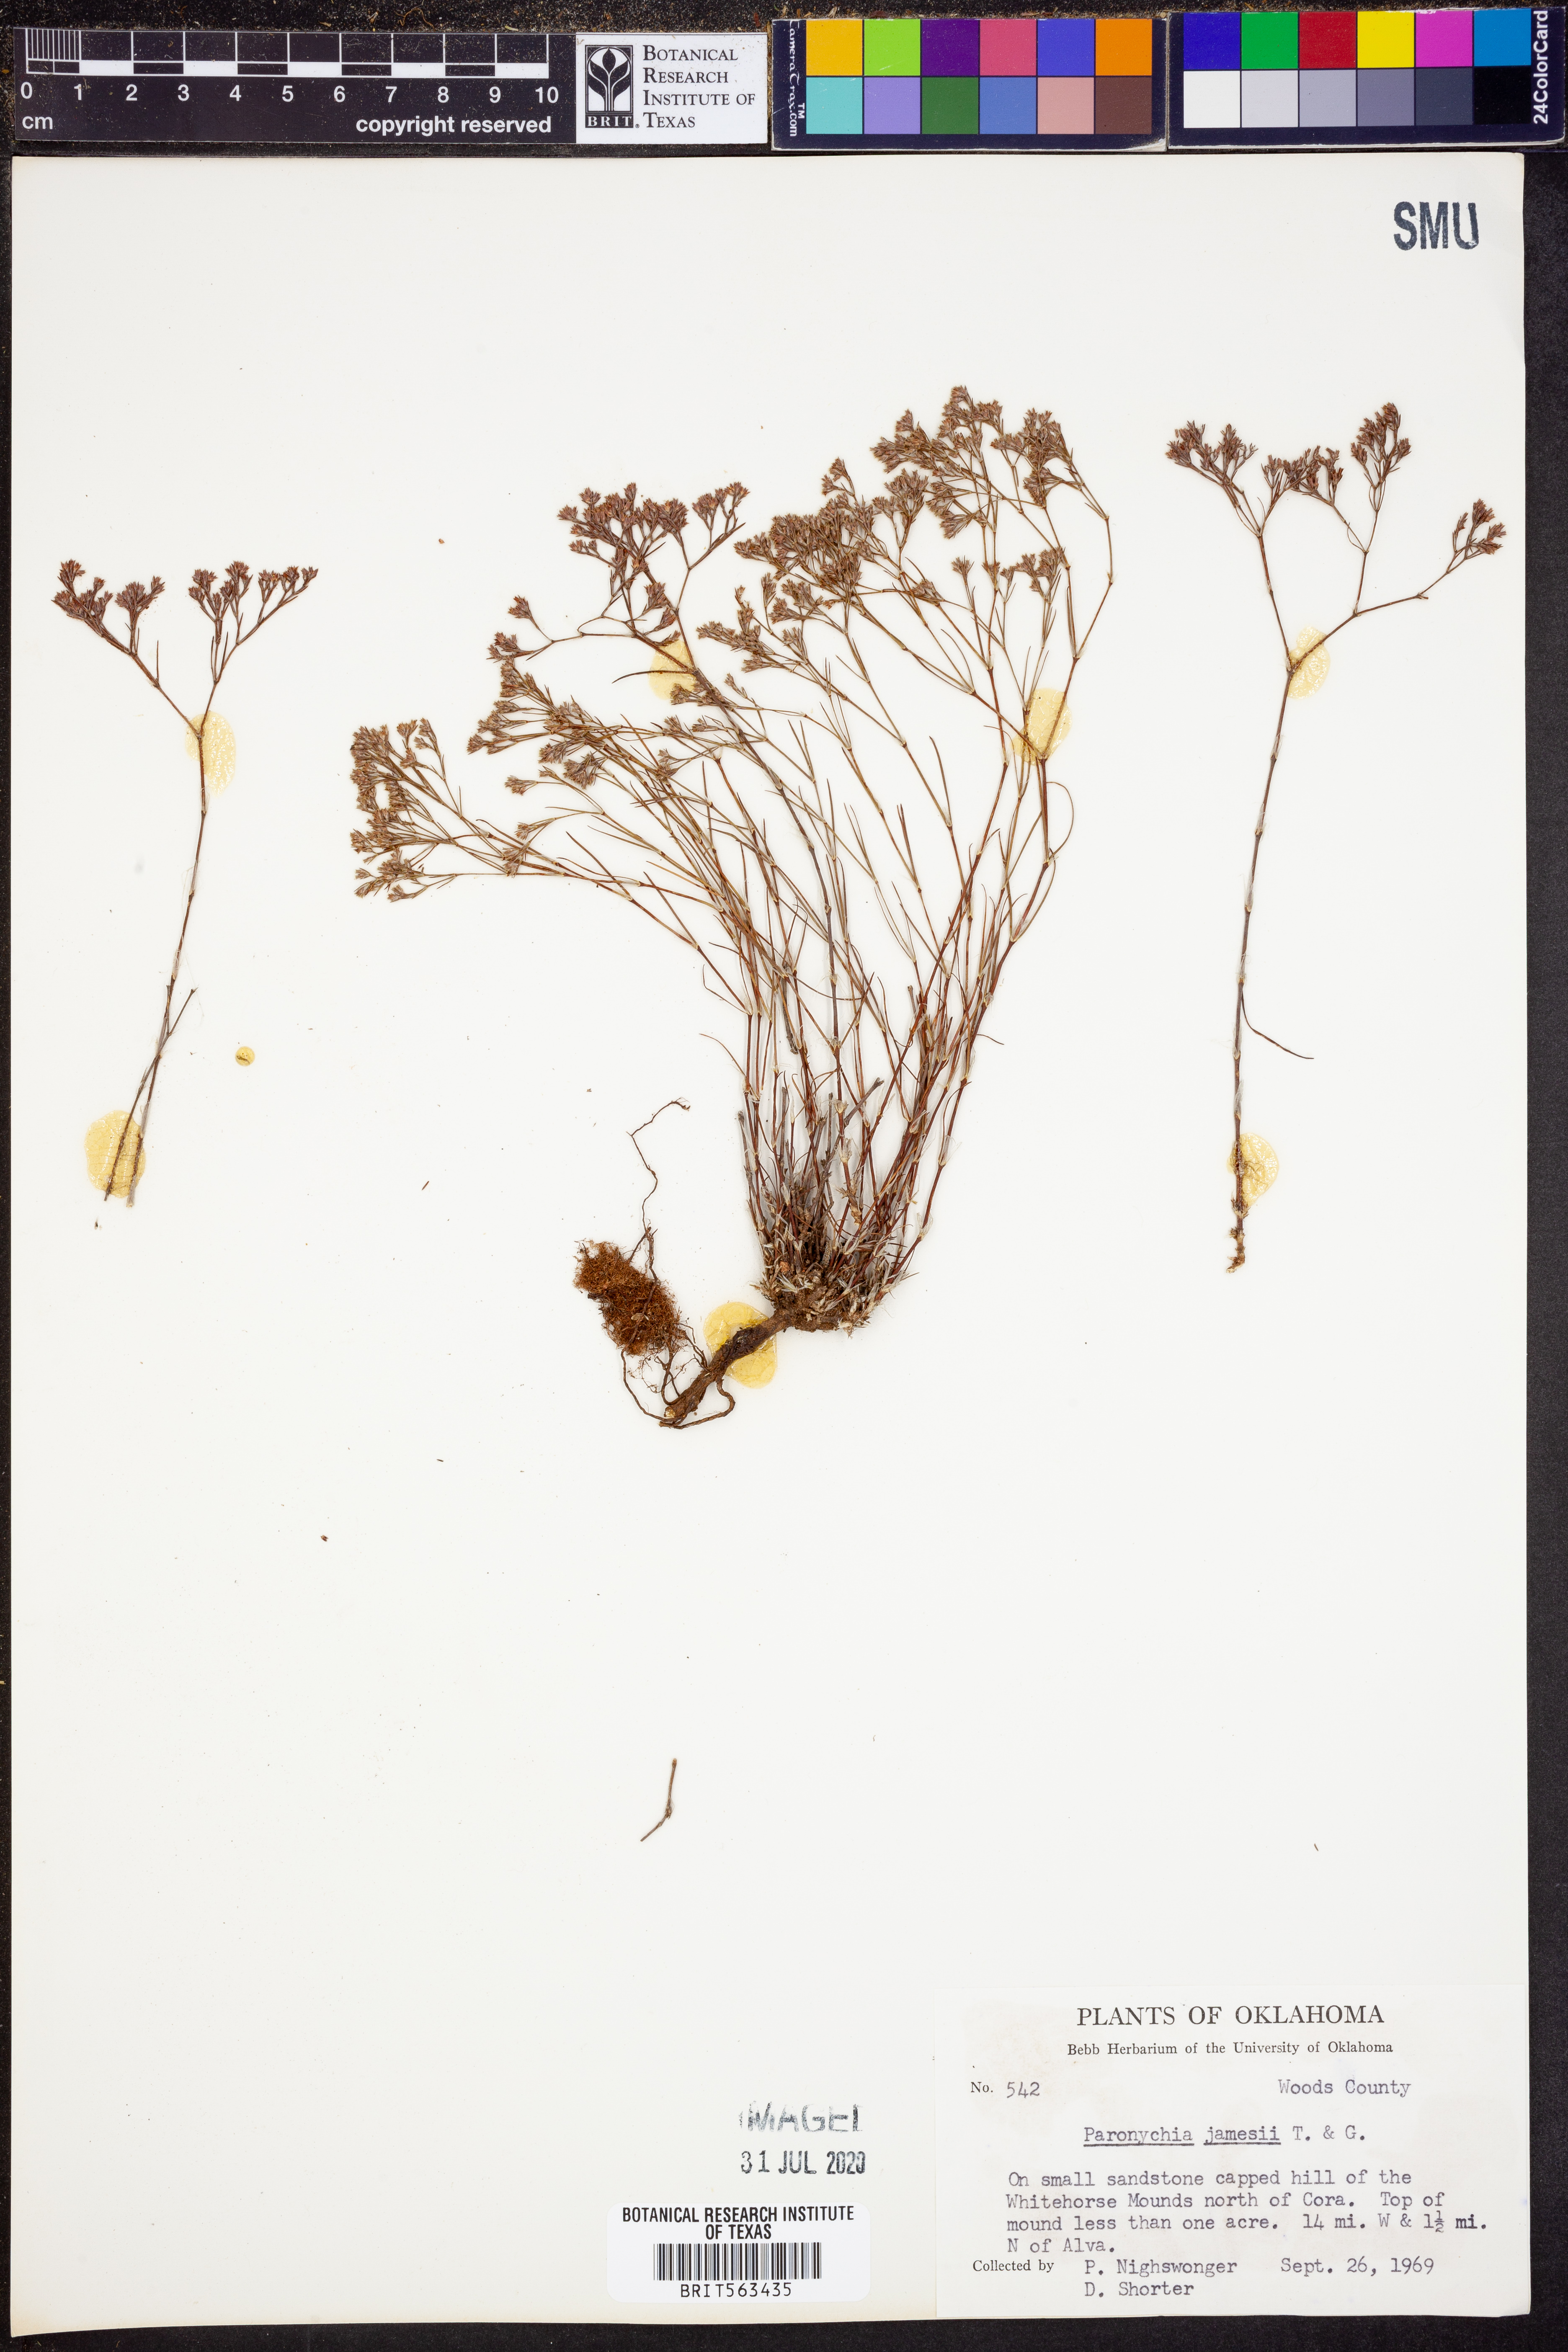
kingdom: Plantae
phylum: Tracheophyta
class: Magnoliopsida
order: Caryophyllales
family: Caryophyllaceae
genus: Paronychia
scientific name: Paronychia jamesii
